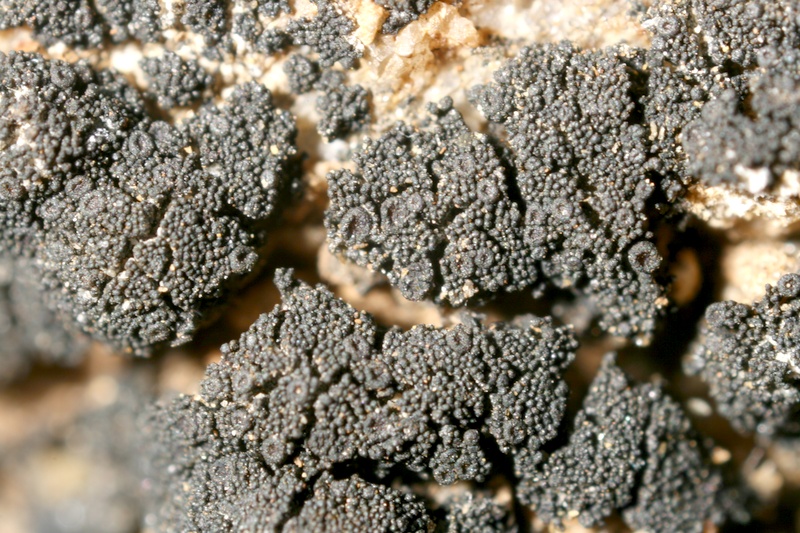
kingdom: Fungi
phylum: Ascomycota
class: Lichinomycetes
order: Lichinales
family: Lichinaceae
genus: Peccania
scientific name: Peccania arizonica
